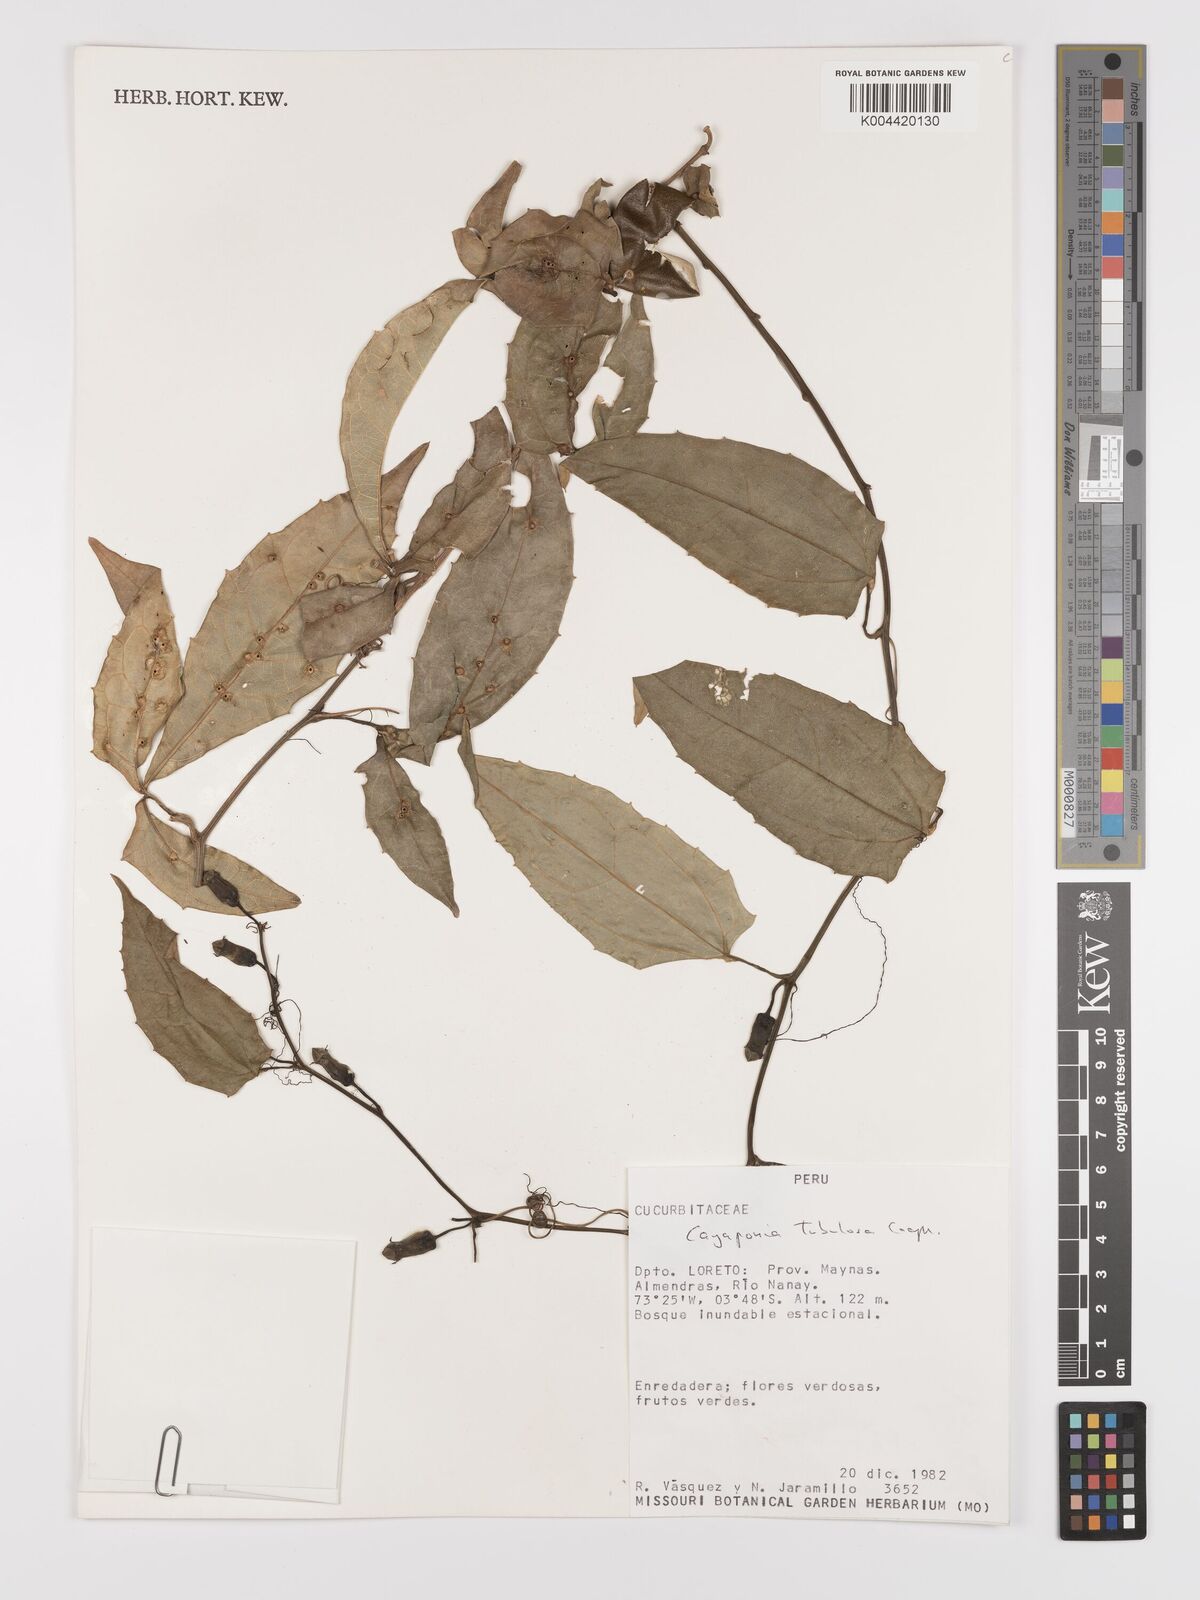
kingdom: Plantae
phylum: Tracheophyta
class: Magnoliopsida
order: Cucurbitales
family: Cucurbitaceae
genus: Cayaponia
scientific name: Cayaponia tubulosa
